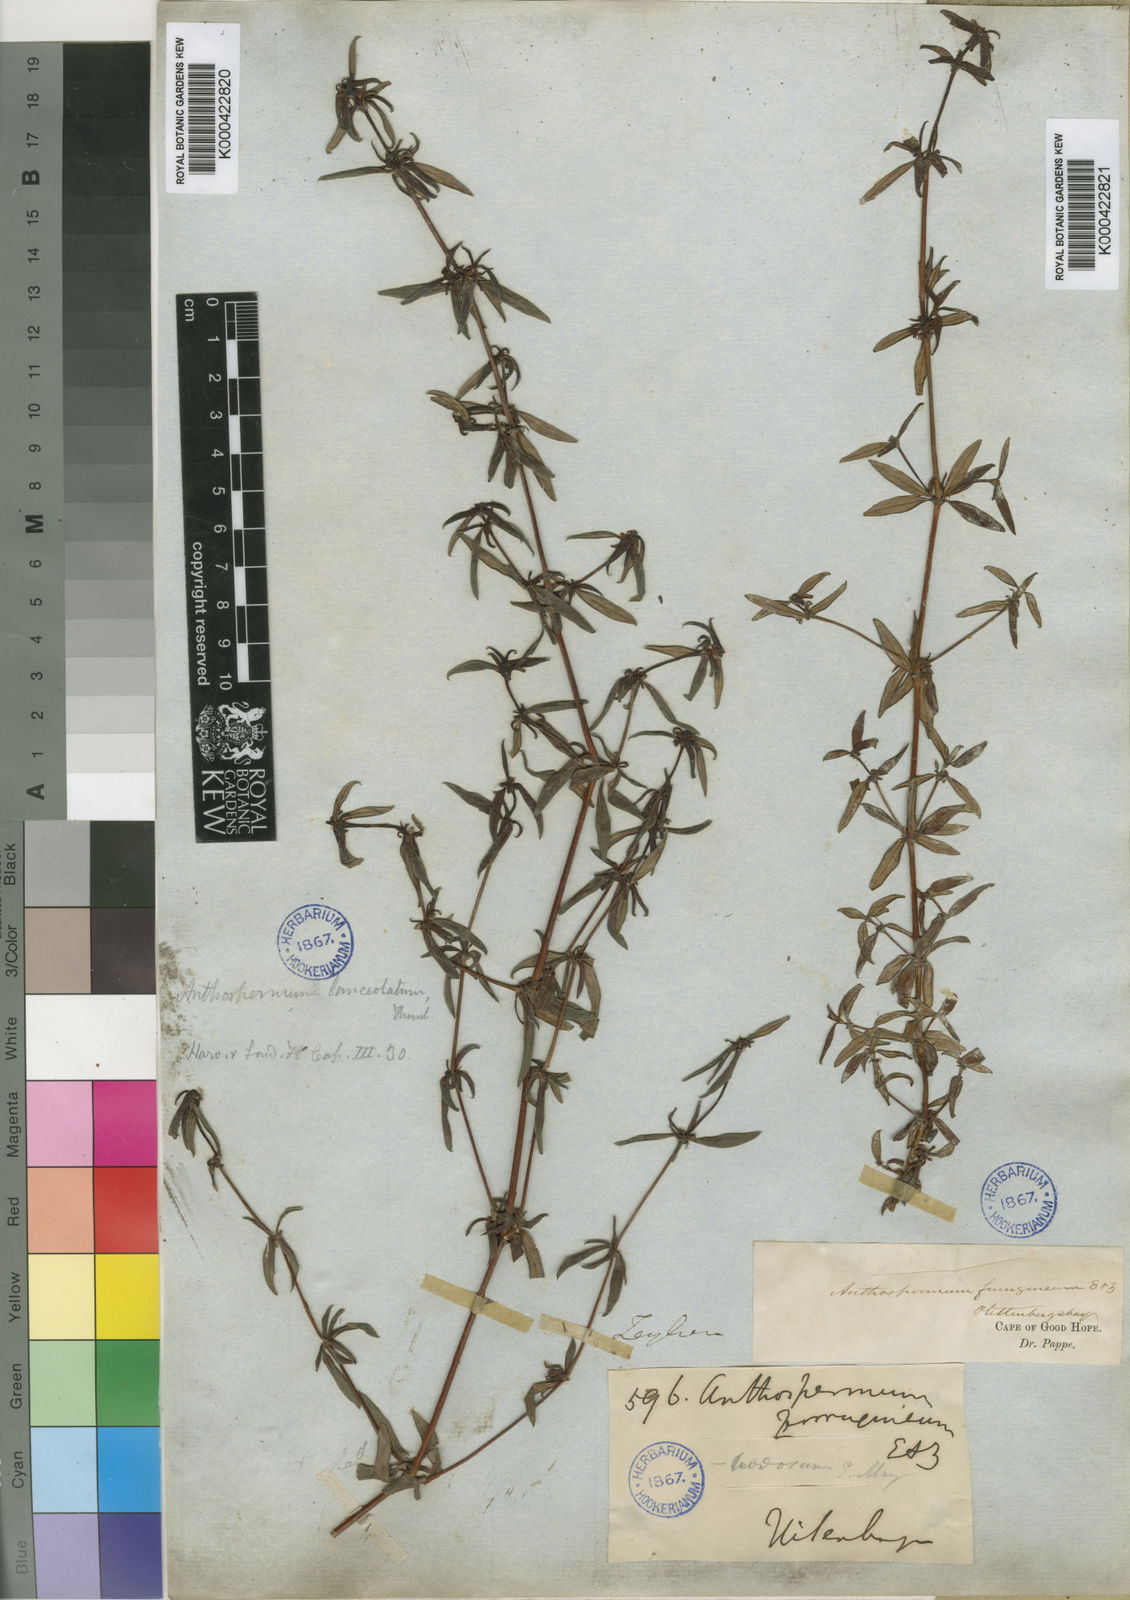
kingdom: Plantae
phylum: Tracheophyta
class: Magnoliopsida
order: Gentianales
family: Rubiaceae
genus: Anthospermum
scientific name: Anthospermum herbaceum
